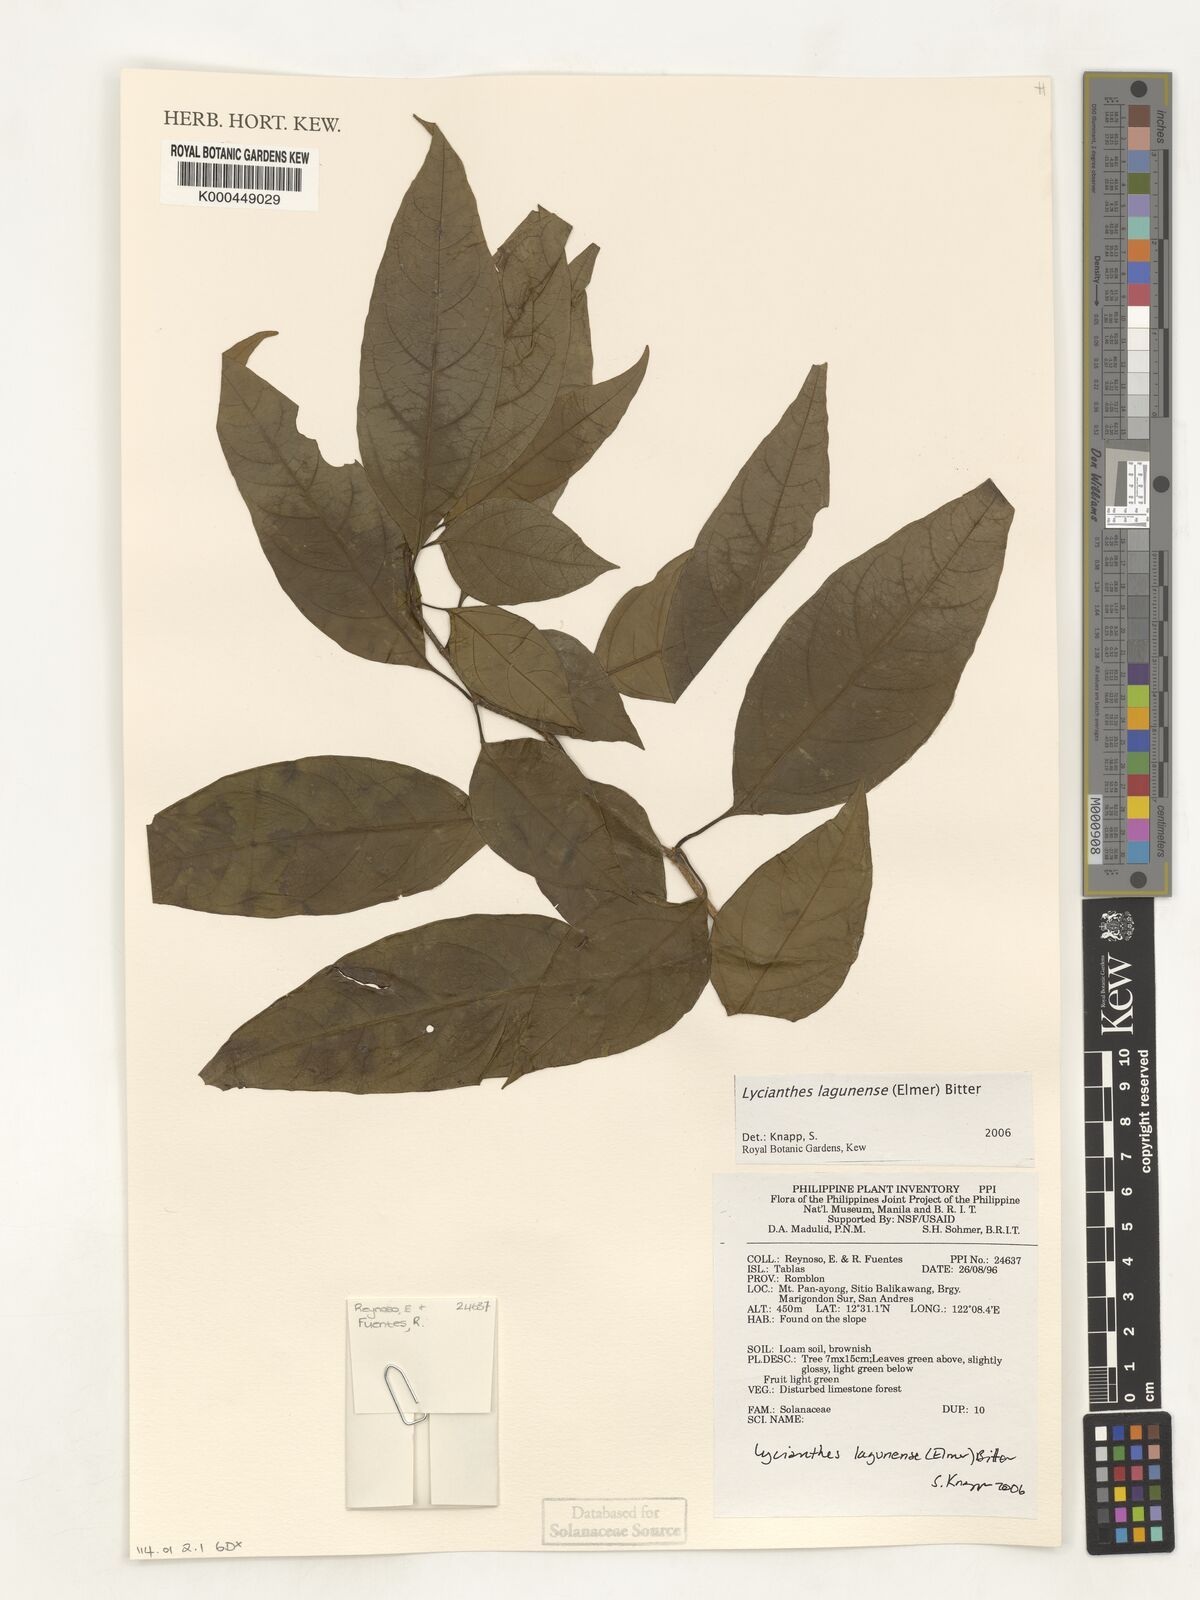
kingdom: Plantae
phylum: Tracheophyta
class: Magnoliopsida
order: Solanales
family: Solanaceae
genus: Lycianthes
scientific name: Lycianthes
